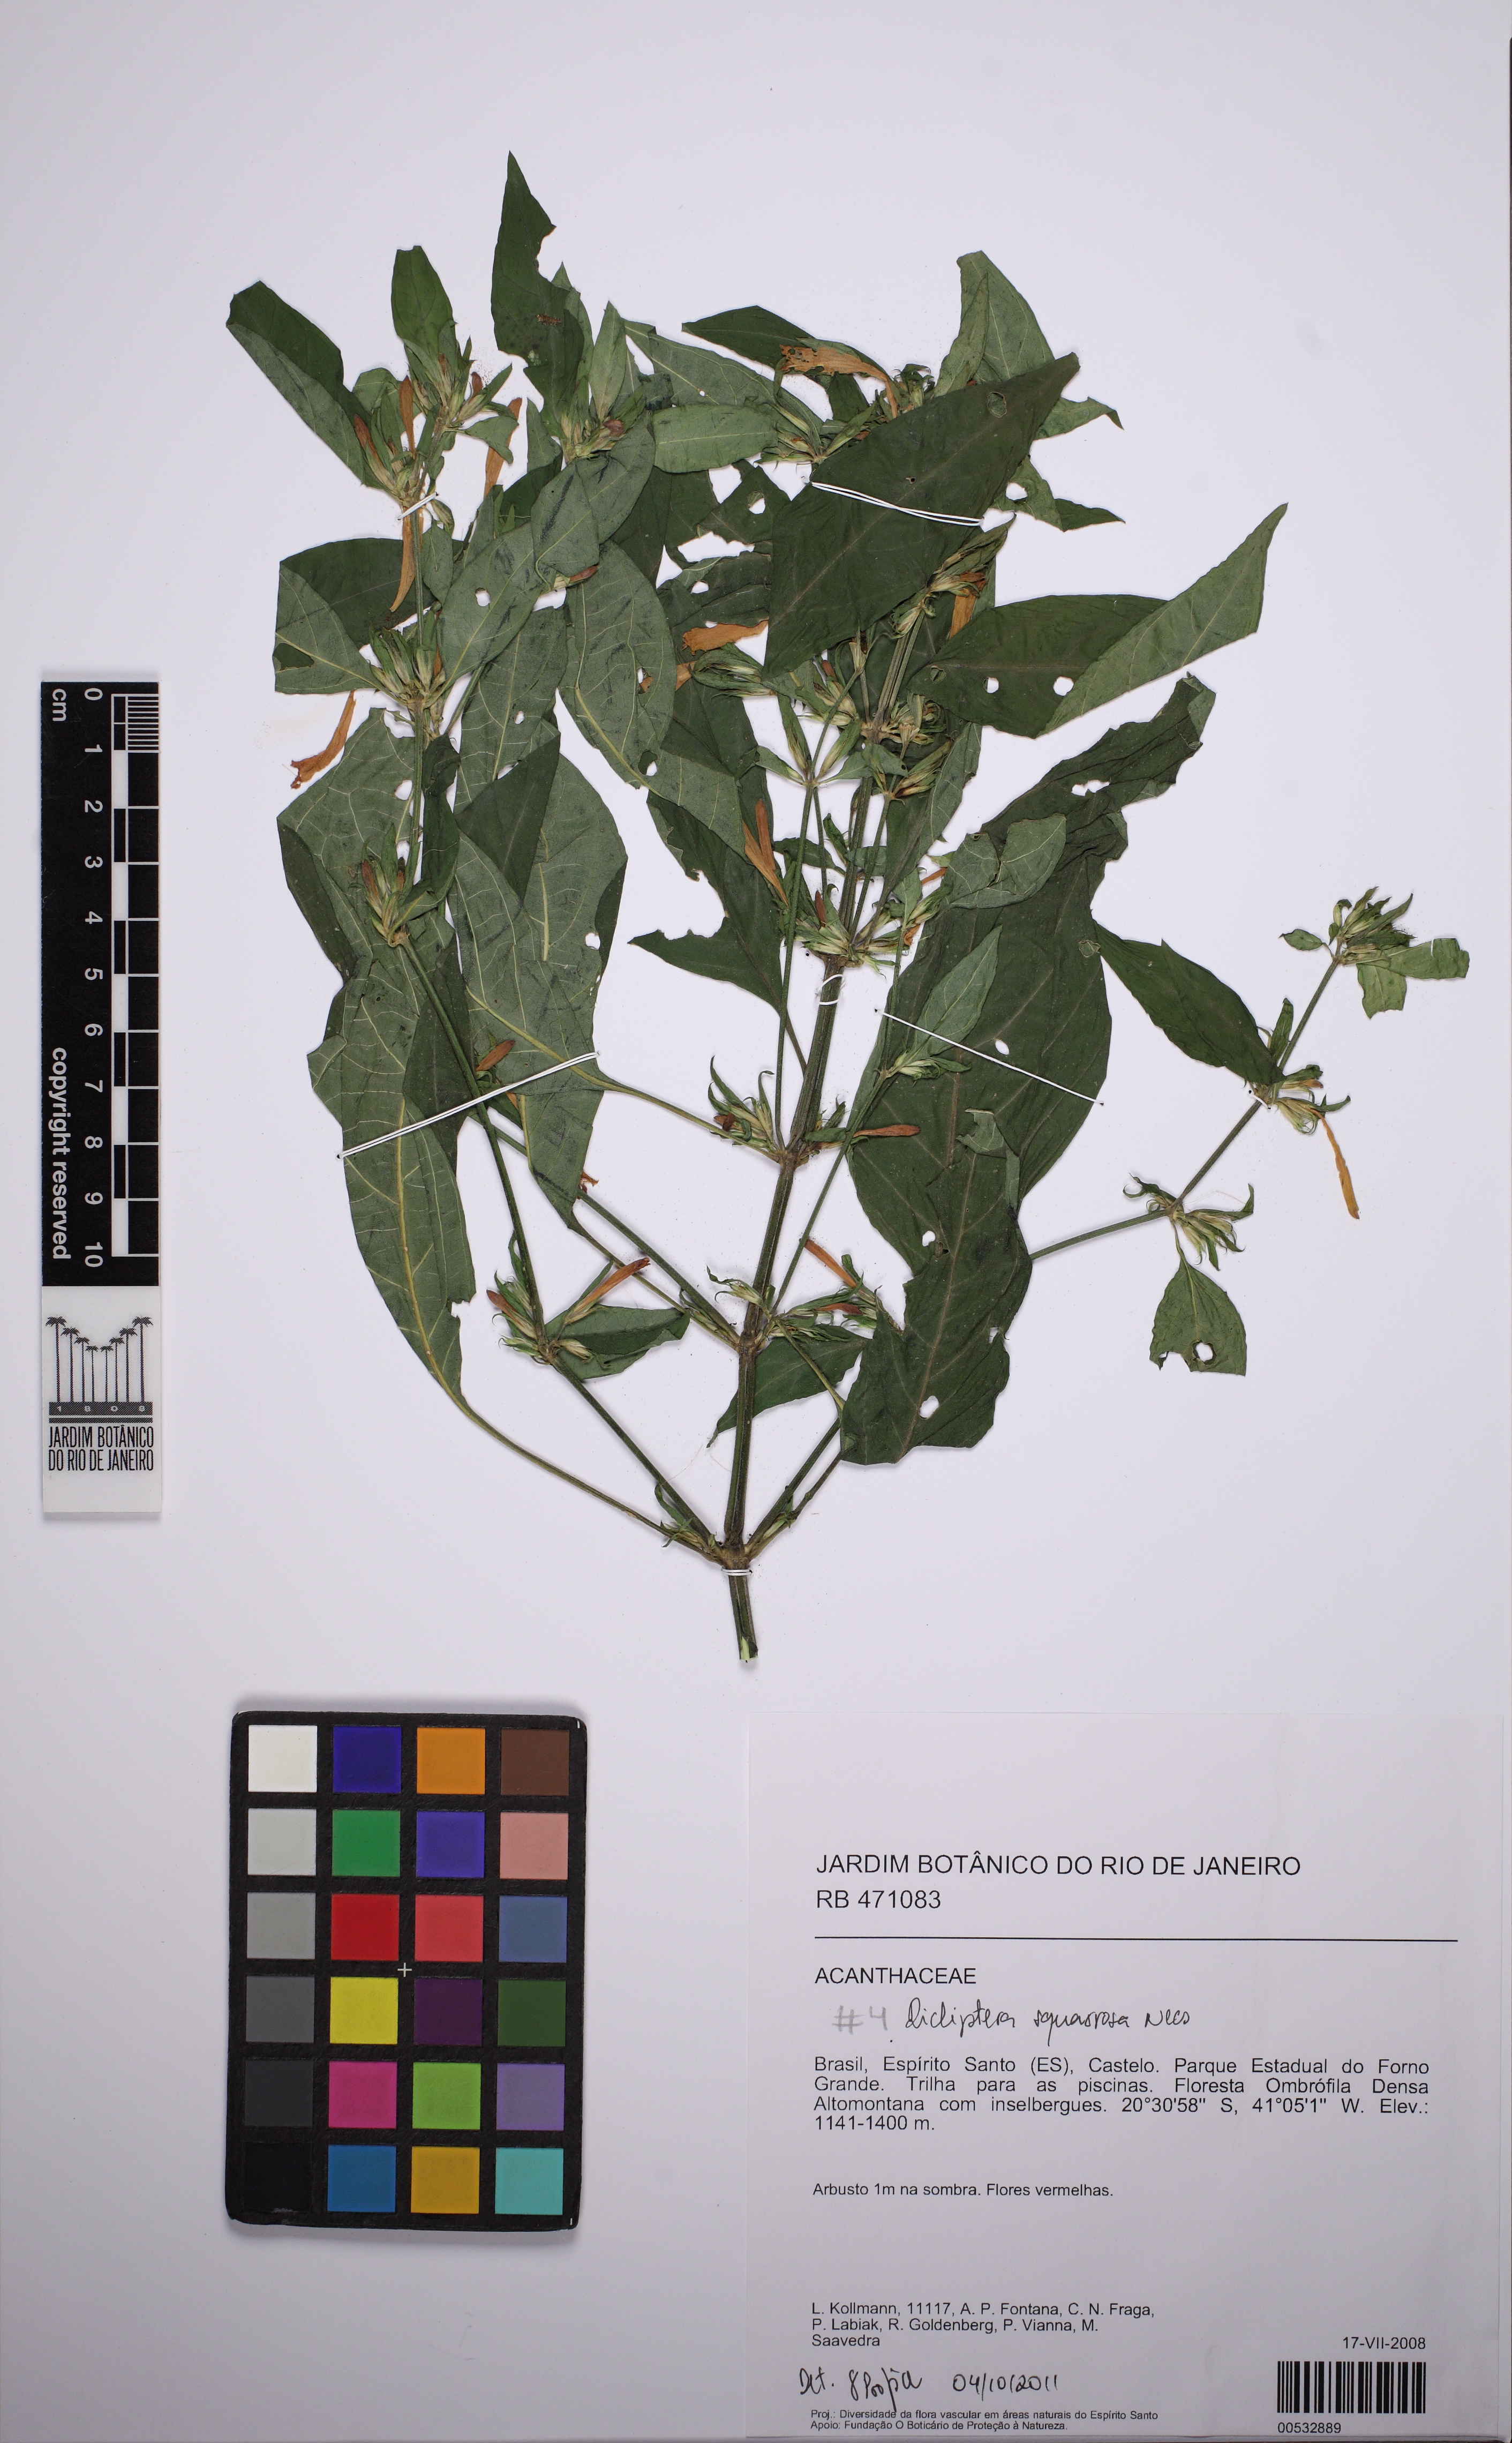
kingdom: Plantae
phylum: Tracheophyta
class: Magnoliopsida
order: Lamiales
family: Acanthaceae
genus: Dicliptera
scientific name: Dicliptera squarrosa
